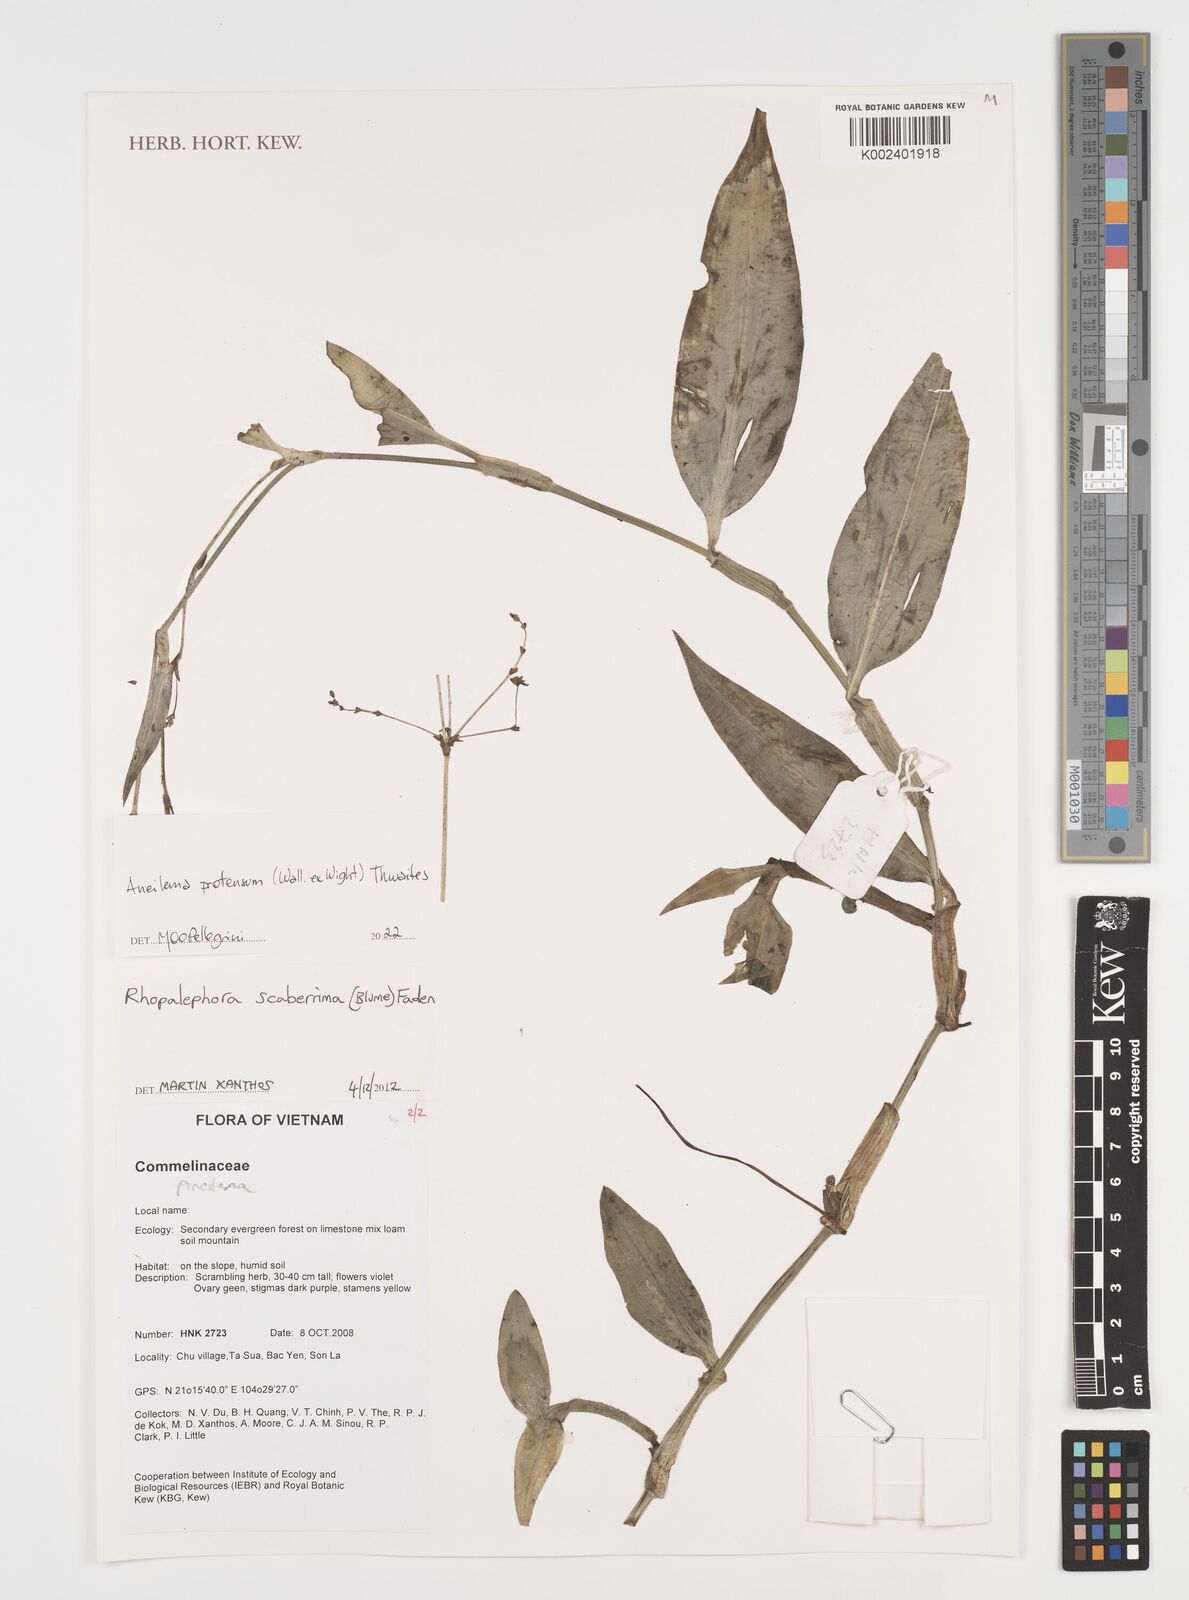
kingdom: Plantae
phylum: Tracheophyta
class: Liliopsida
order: Commelinales
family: Commelinaceae
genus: Rhopalephora
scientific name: Rhopalephora
